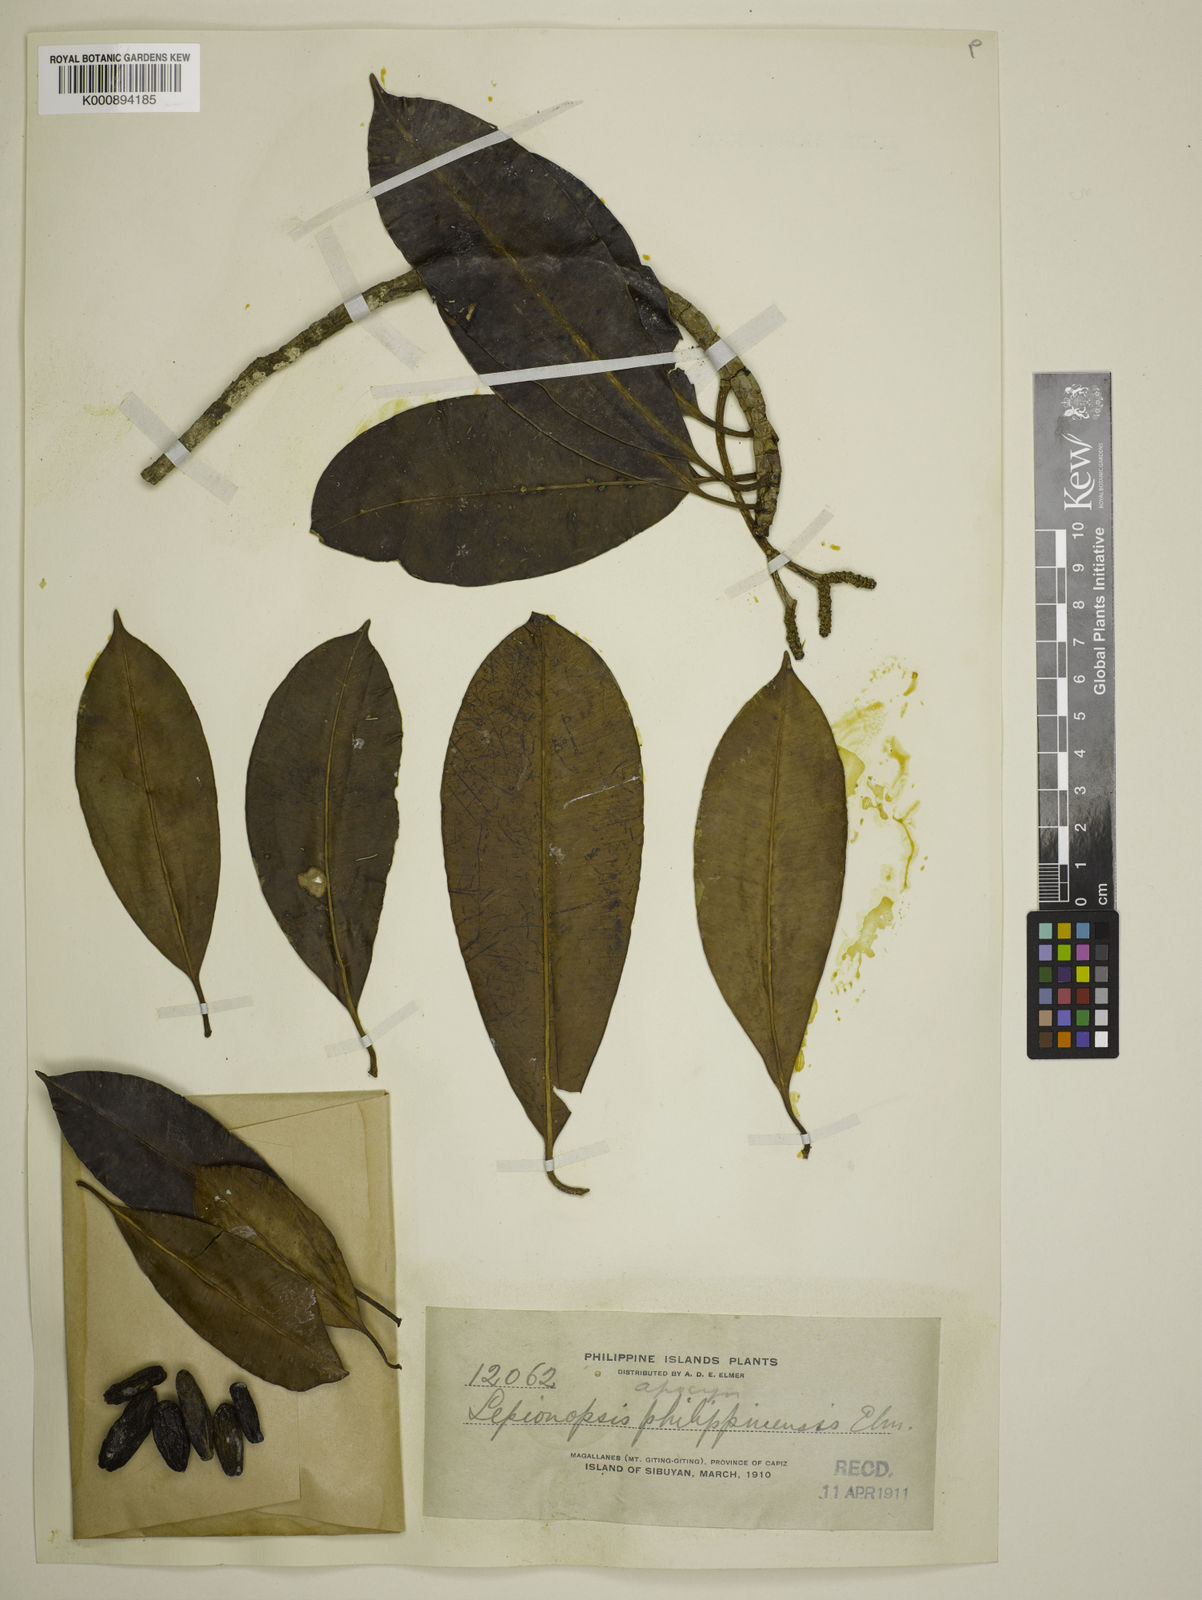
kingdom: Plantae
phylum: Tracheophyta
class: Magnoliopsida
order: Gentianales
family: Apocynaceae
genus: Lepiniopsis
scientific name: Lepiniopsis ternatensis
